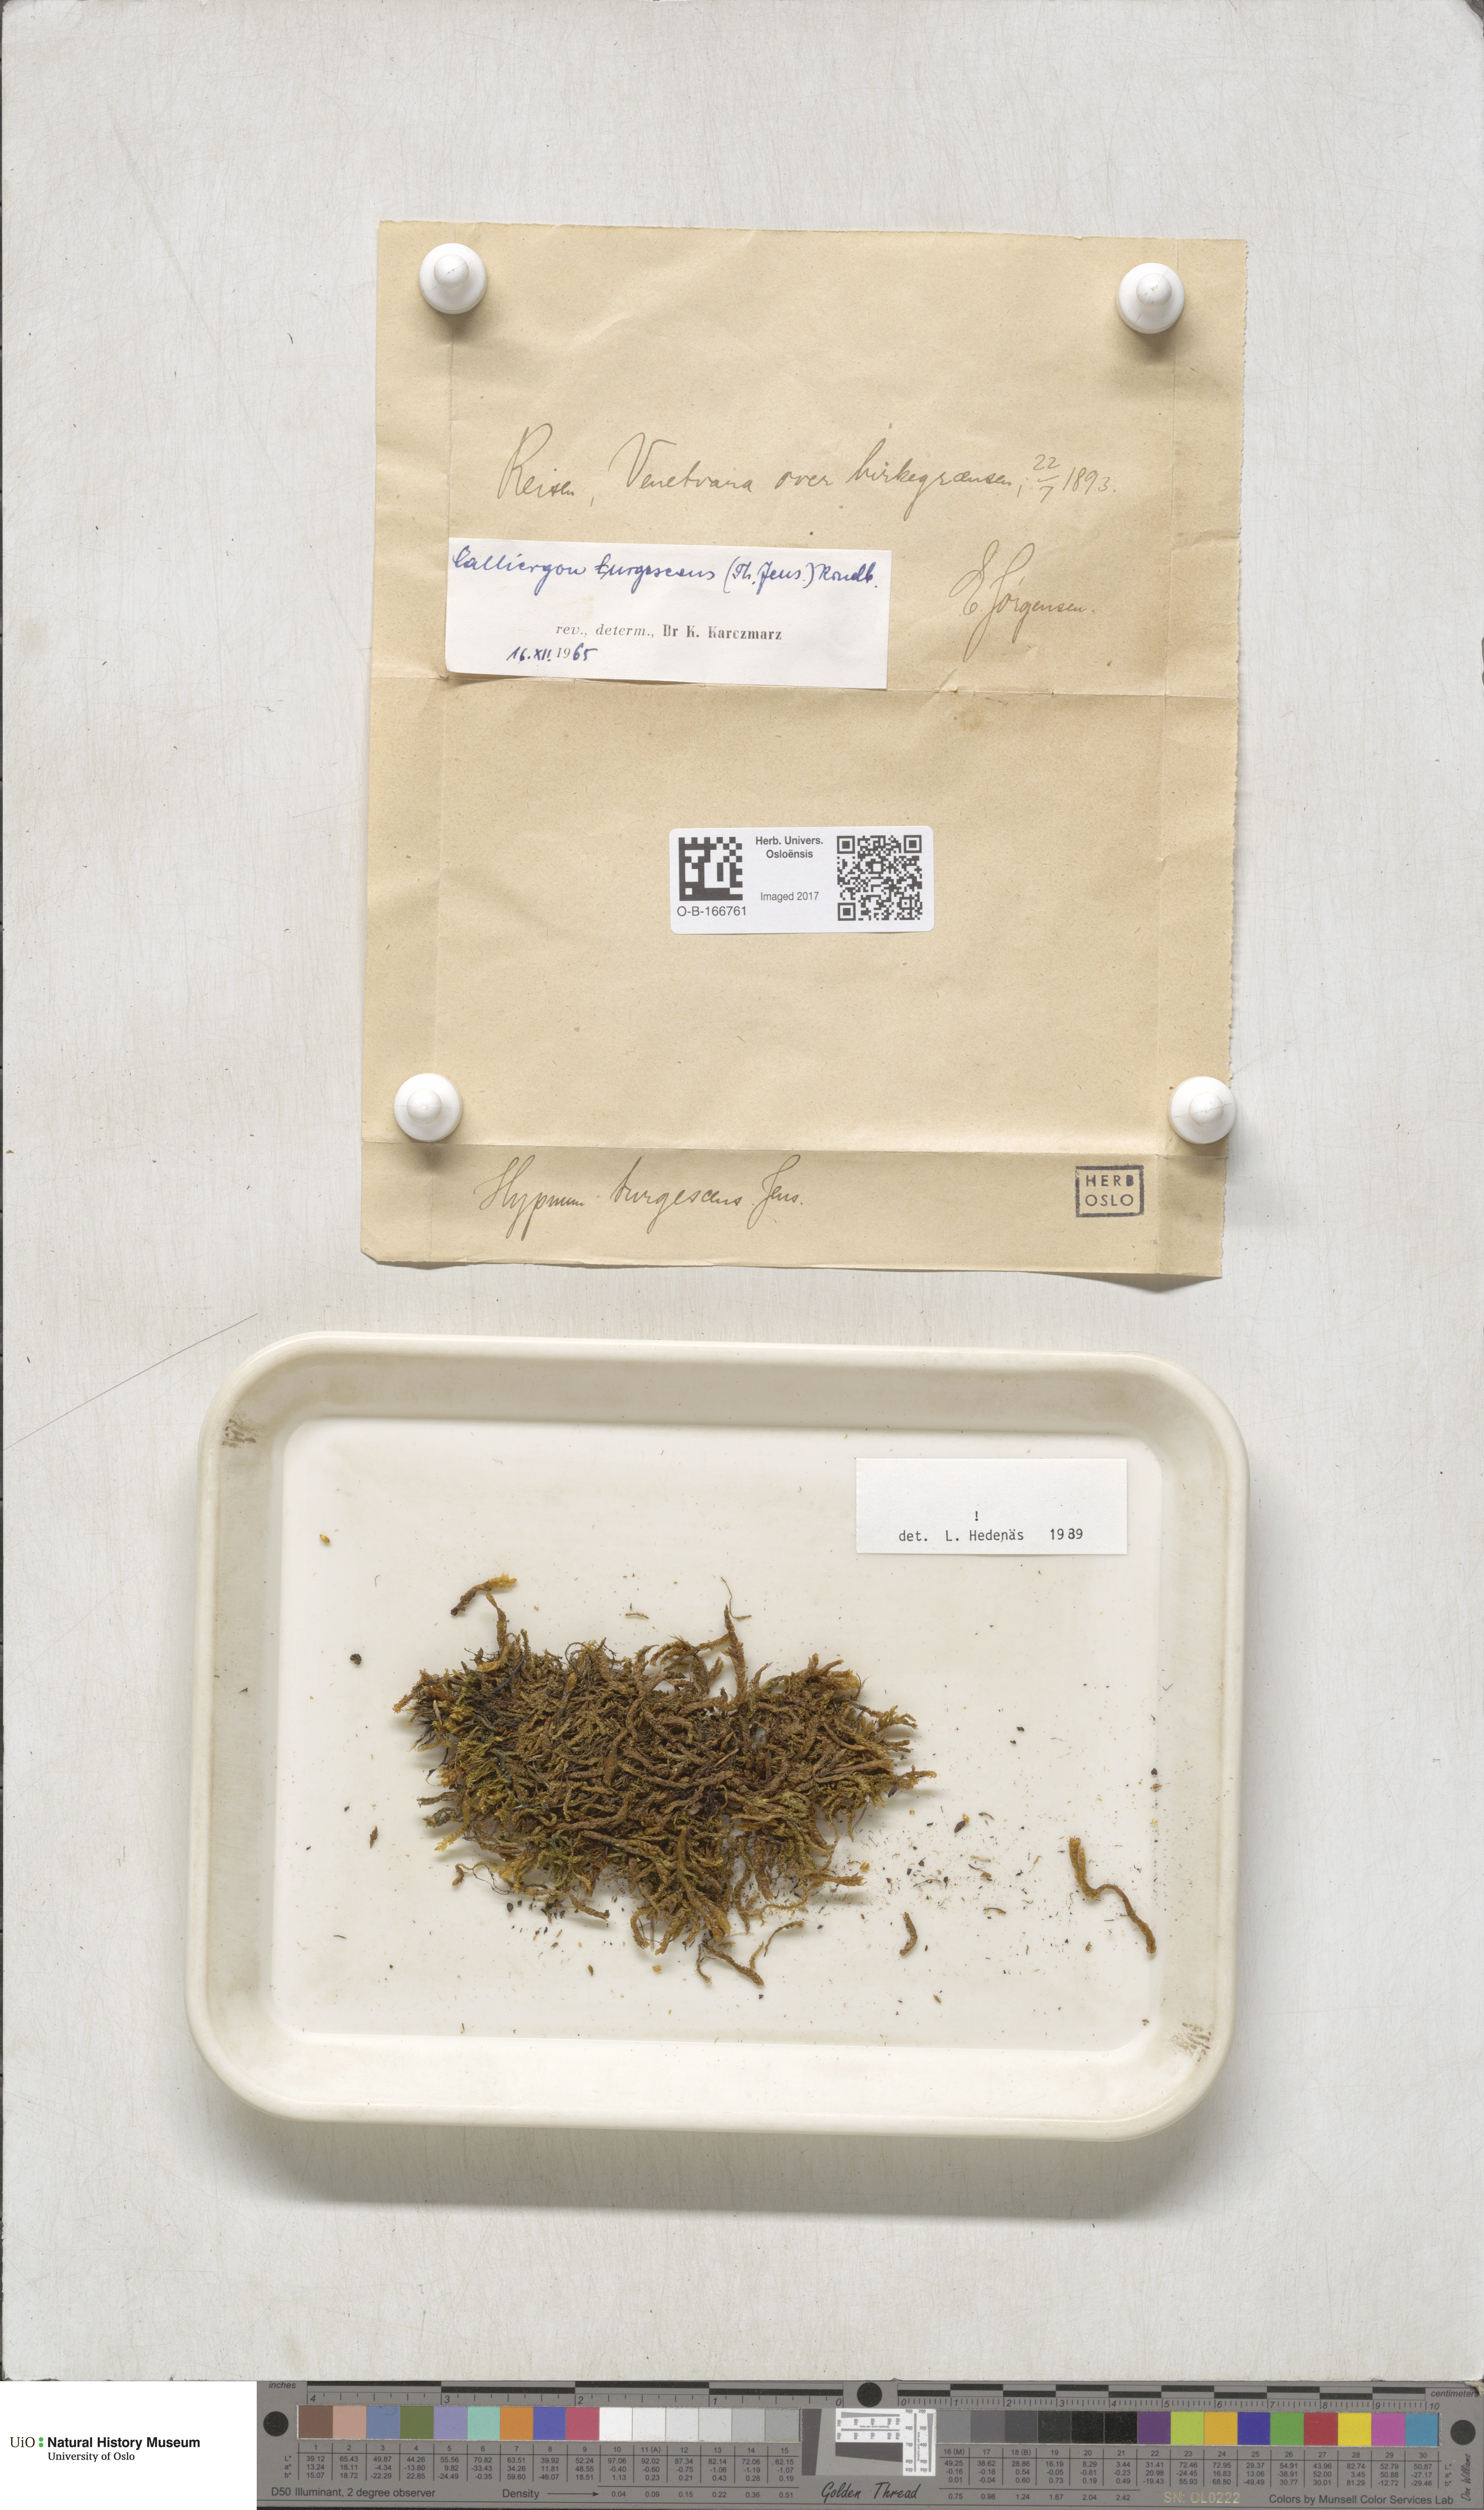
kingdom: Plantae
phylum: Bryophyta
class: Bryopsida
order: Hypnales
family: Amblystegiaceae
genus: Drepanocladus
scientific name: Drepanocladus turgescens
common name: Large yellow feather-moss
